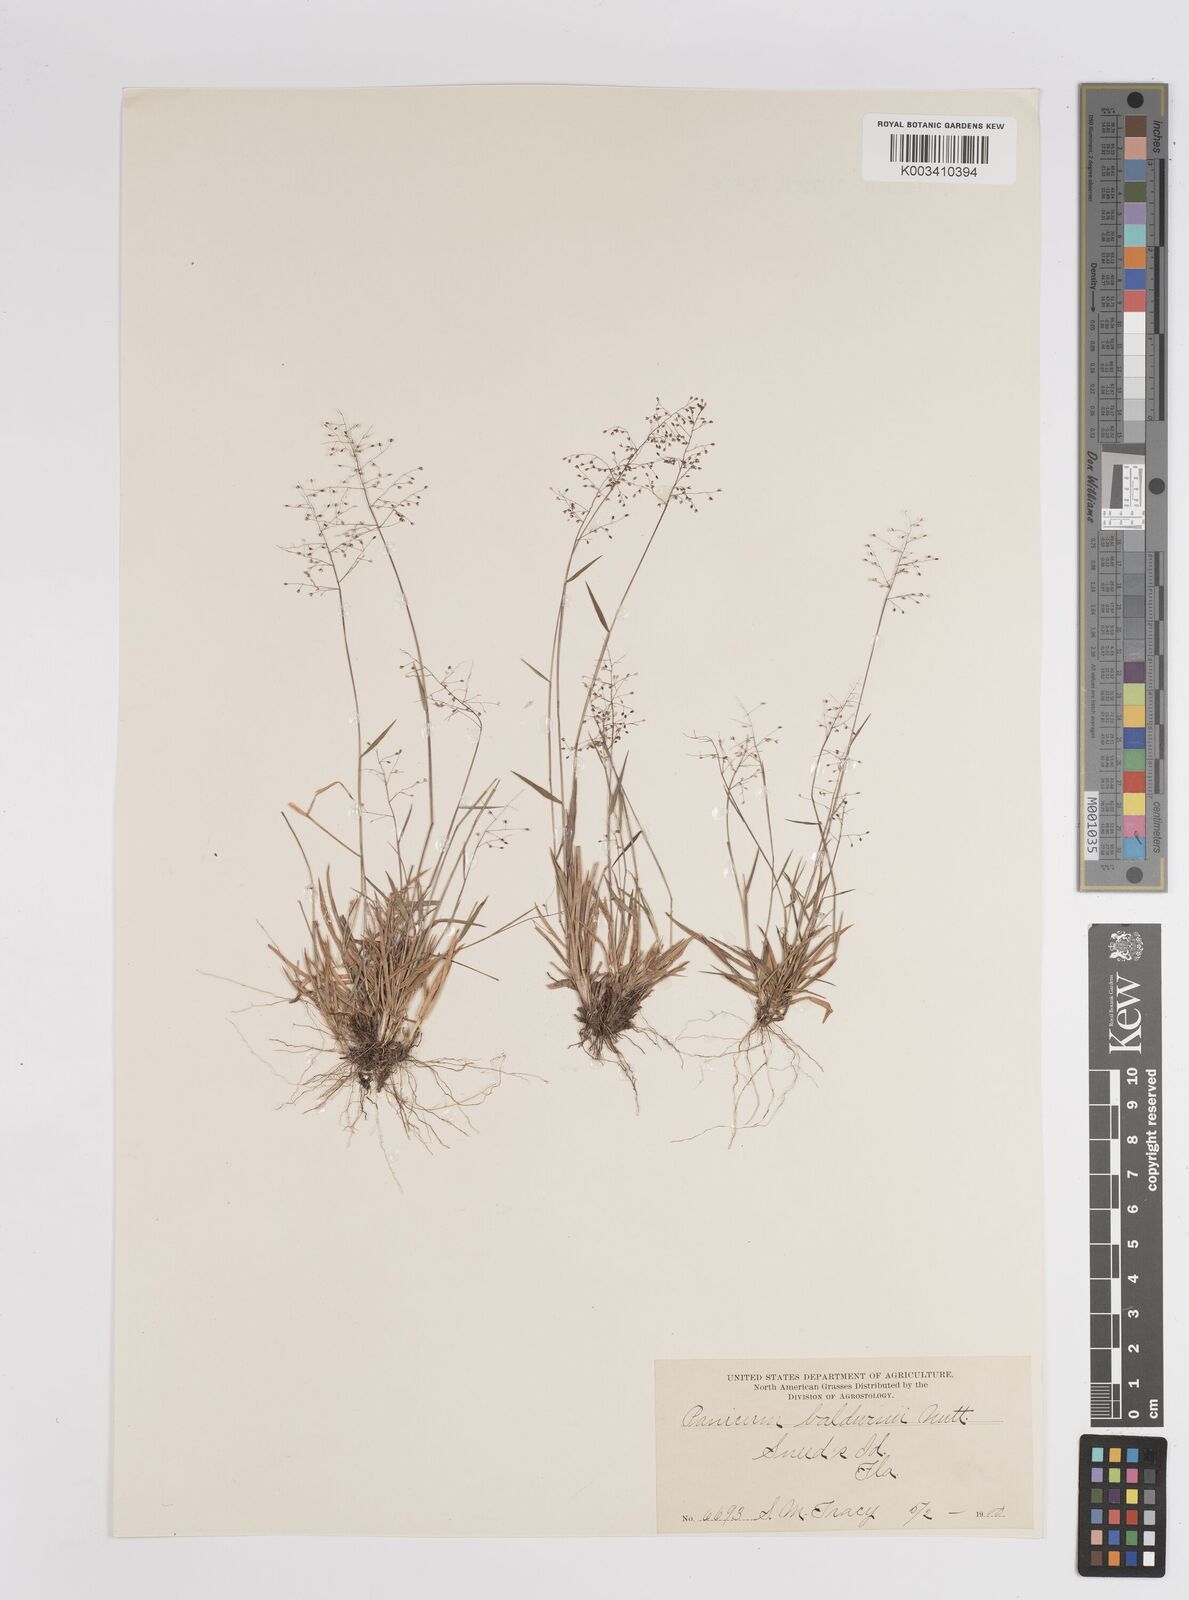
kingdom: Plantae
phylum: Tracheophyta
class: Liliopsida
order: Poales
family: Poaceae
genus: Dichanthelium
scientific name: Dichanthelium chamaelonche
